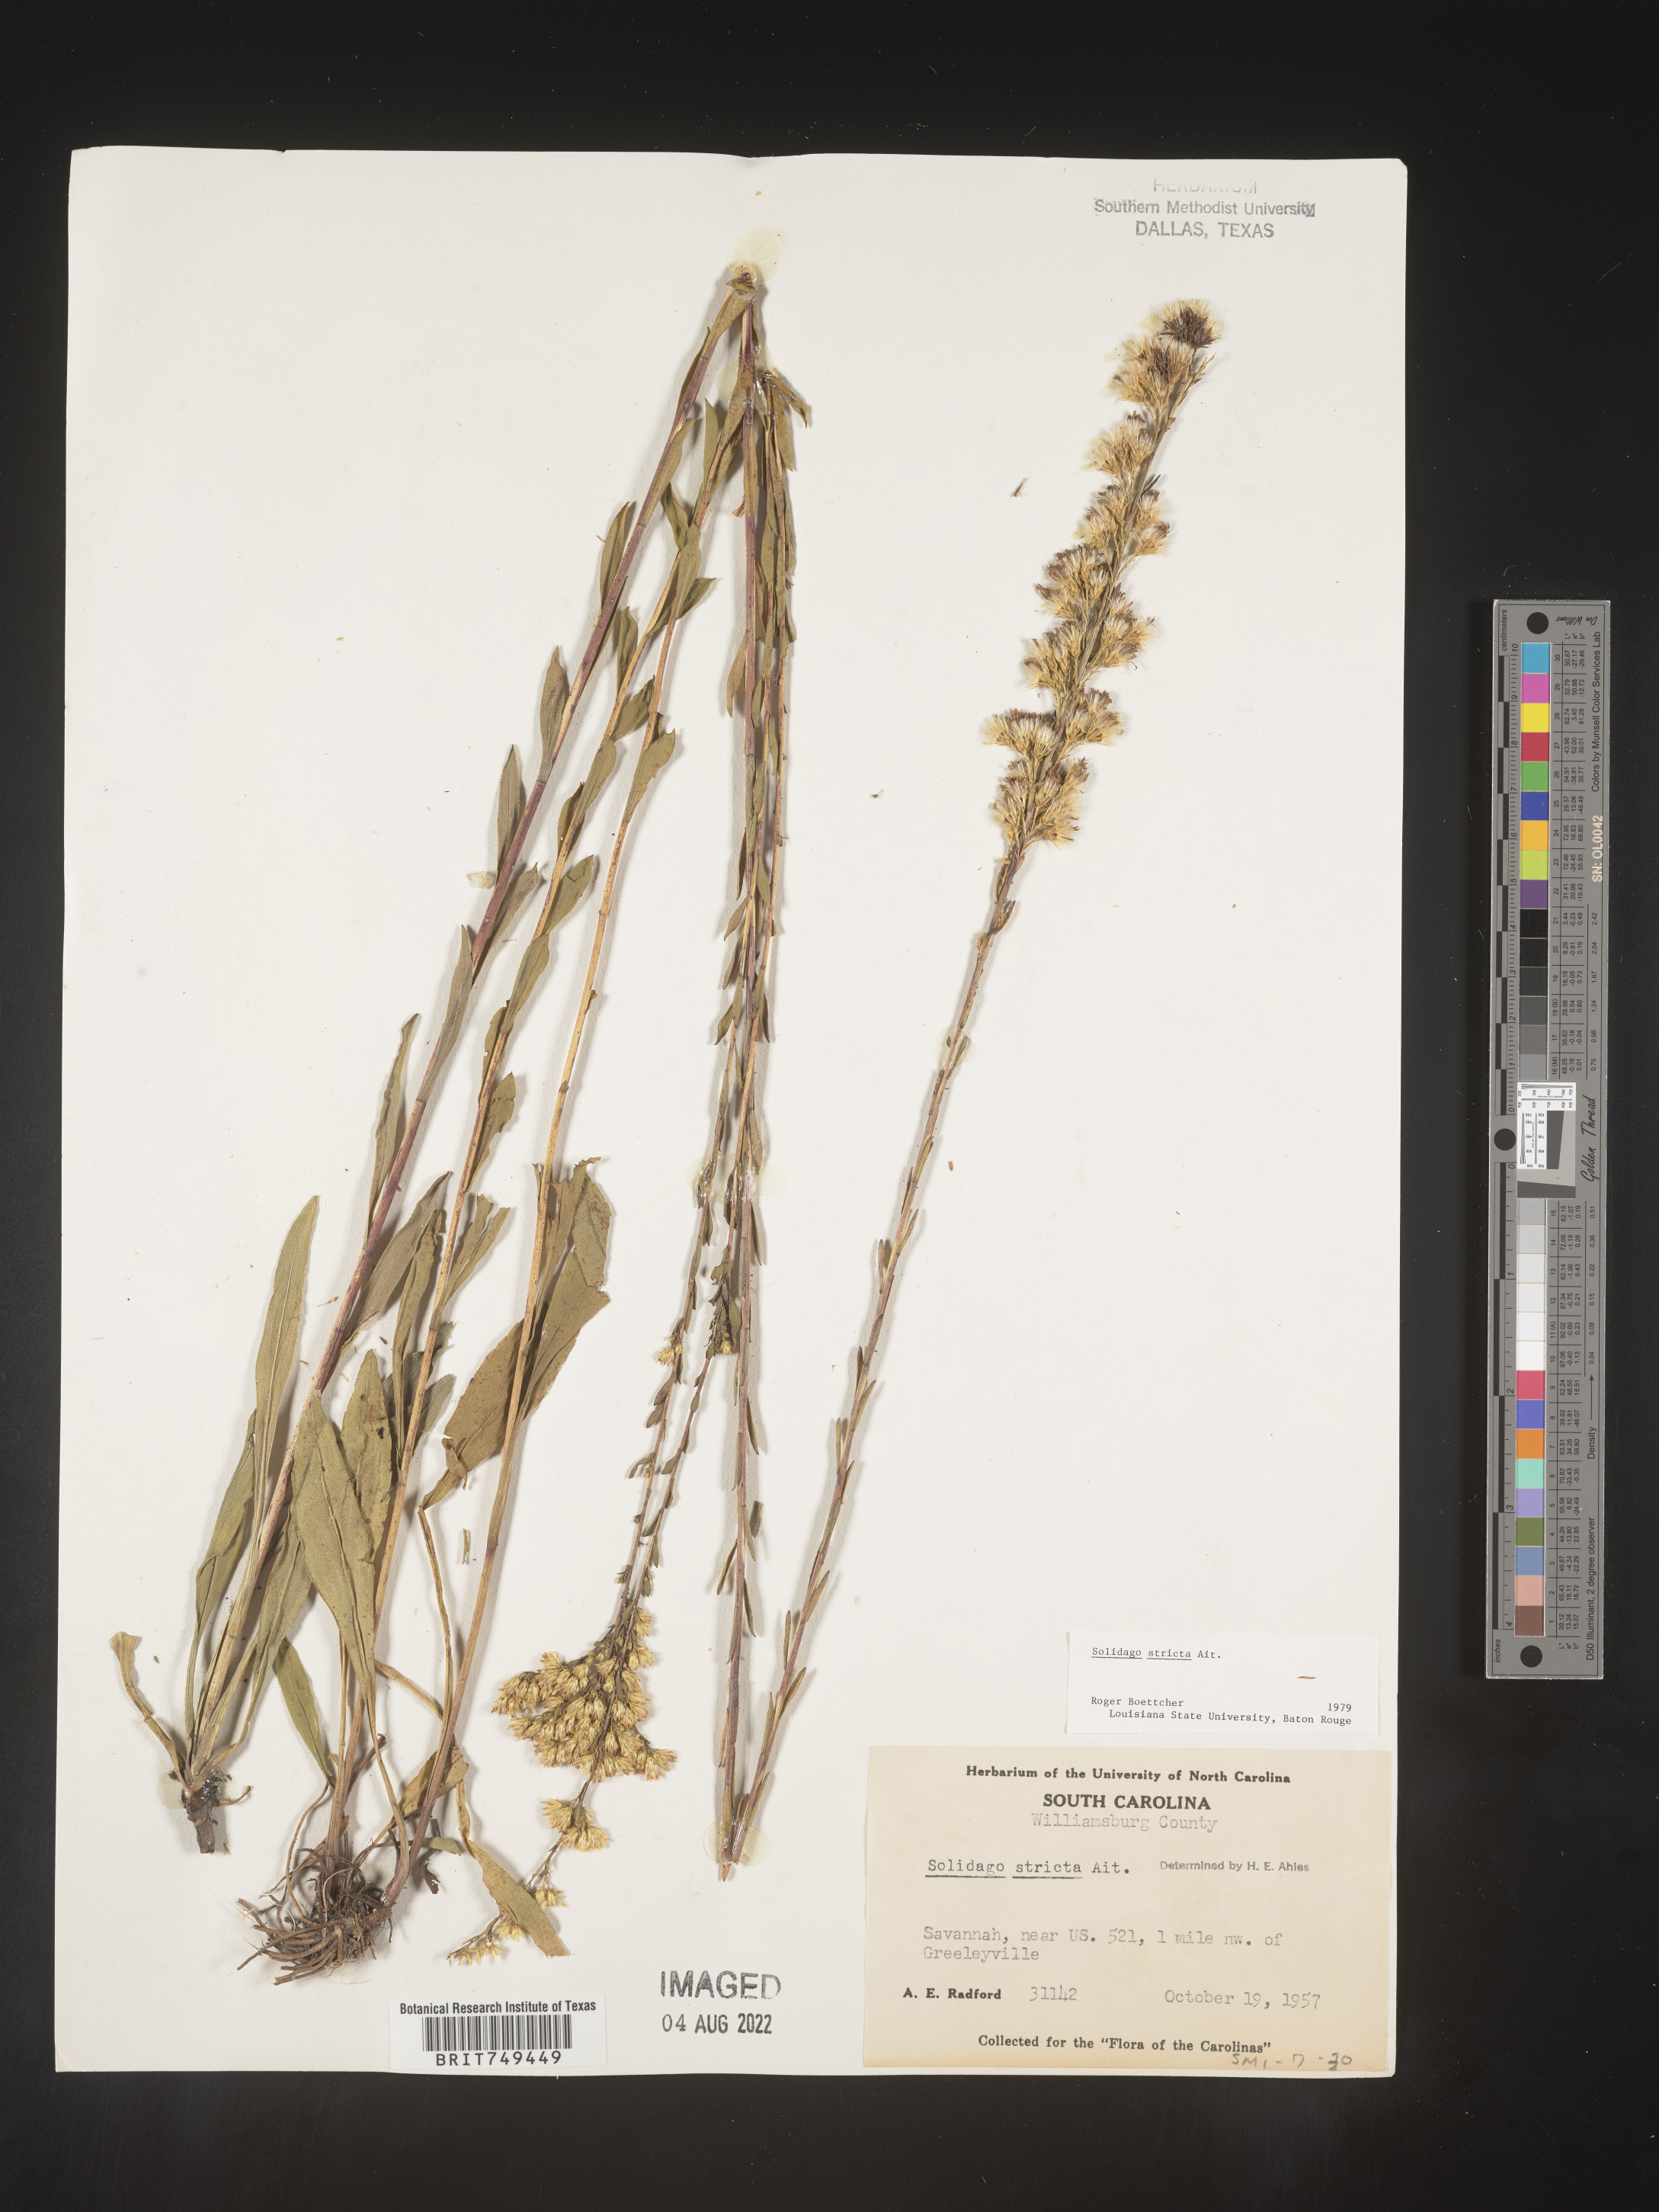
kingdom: Plantae
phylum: Tracheophyta
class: Magnoliopsida
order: Asterales
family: Asteraceae
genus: Solidago
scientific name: Solidago stricta
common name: Pine barren bog goldenrod
